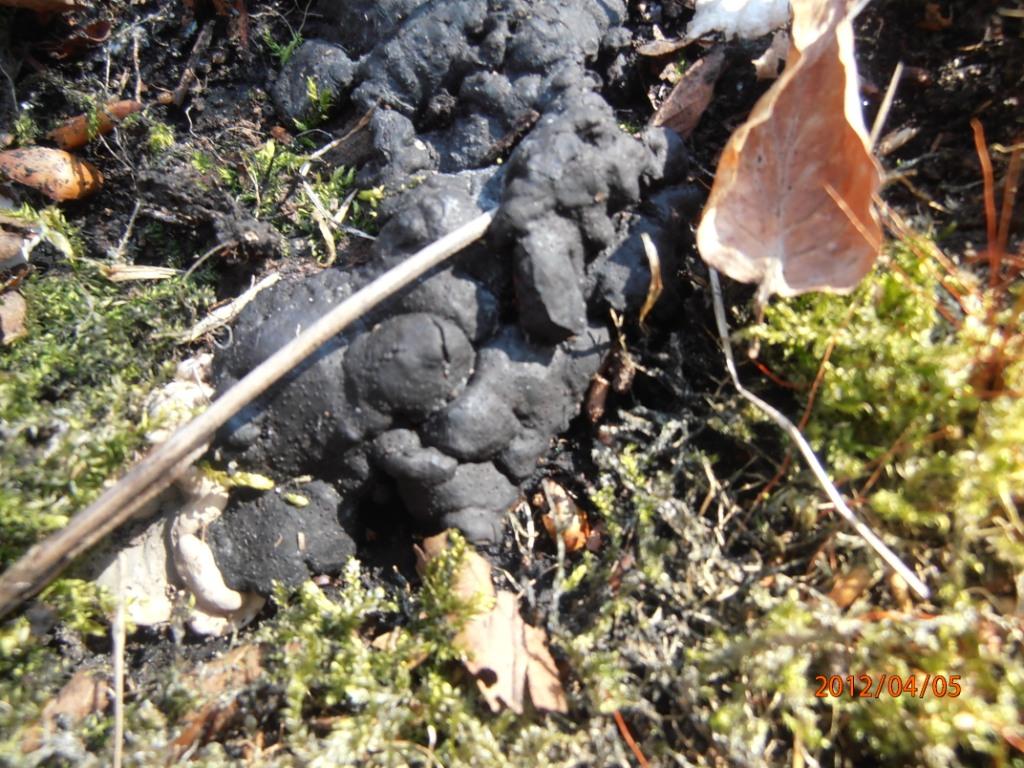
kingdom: Fungi
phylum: Ascomycota
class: Sordariomycetes
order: Xylariales
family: Xylariaceae
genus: Kretzschmaria
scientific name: Kretzschmaria deusta
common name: stor kulsvamp
